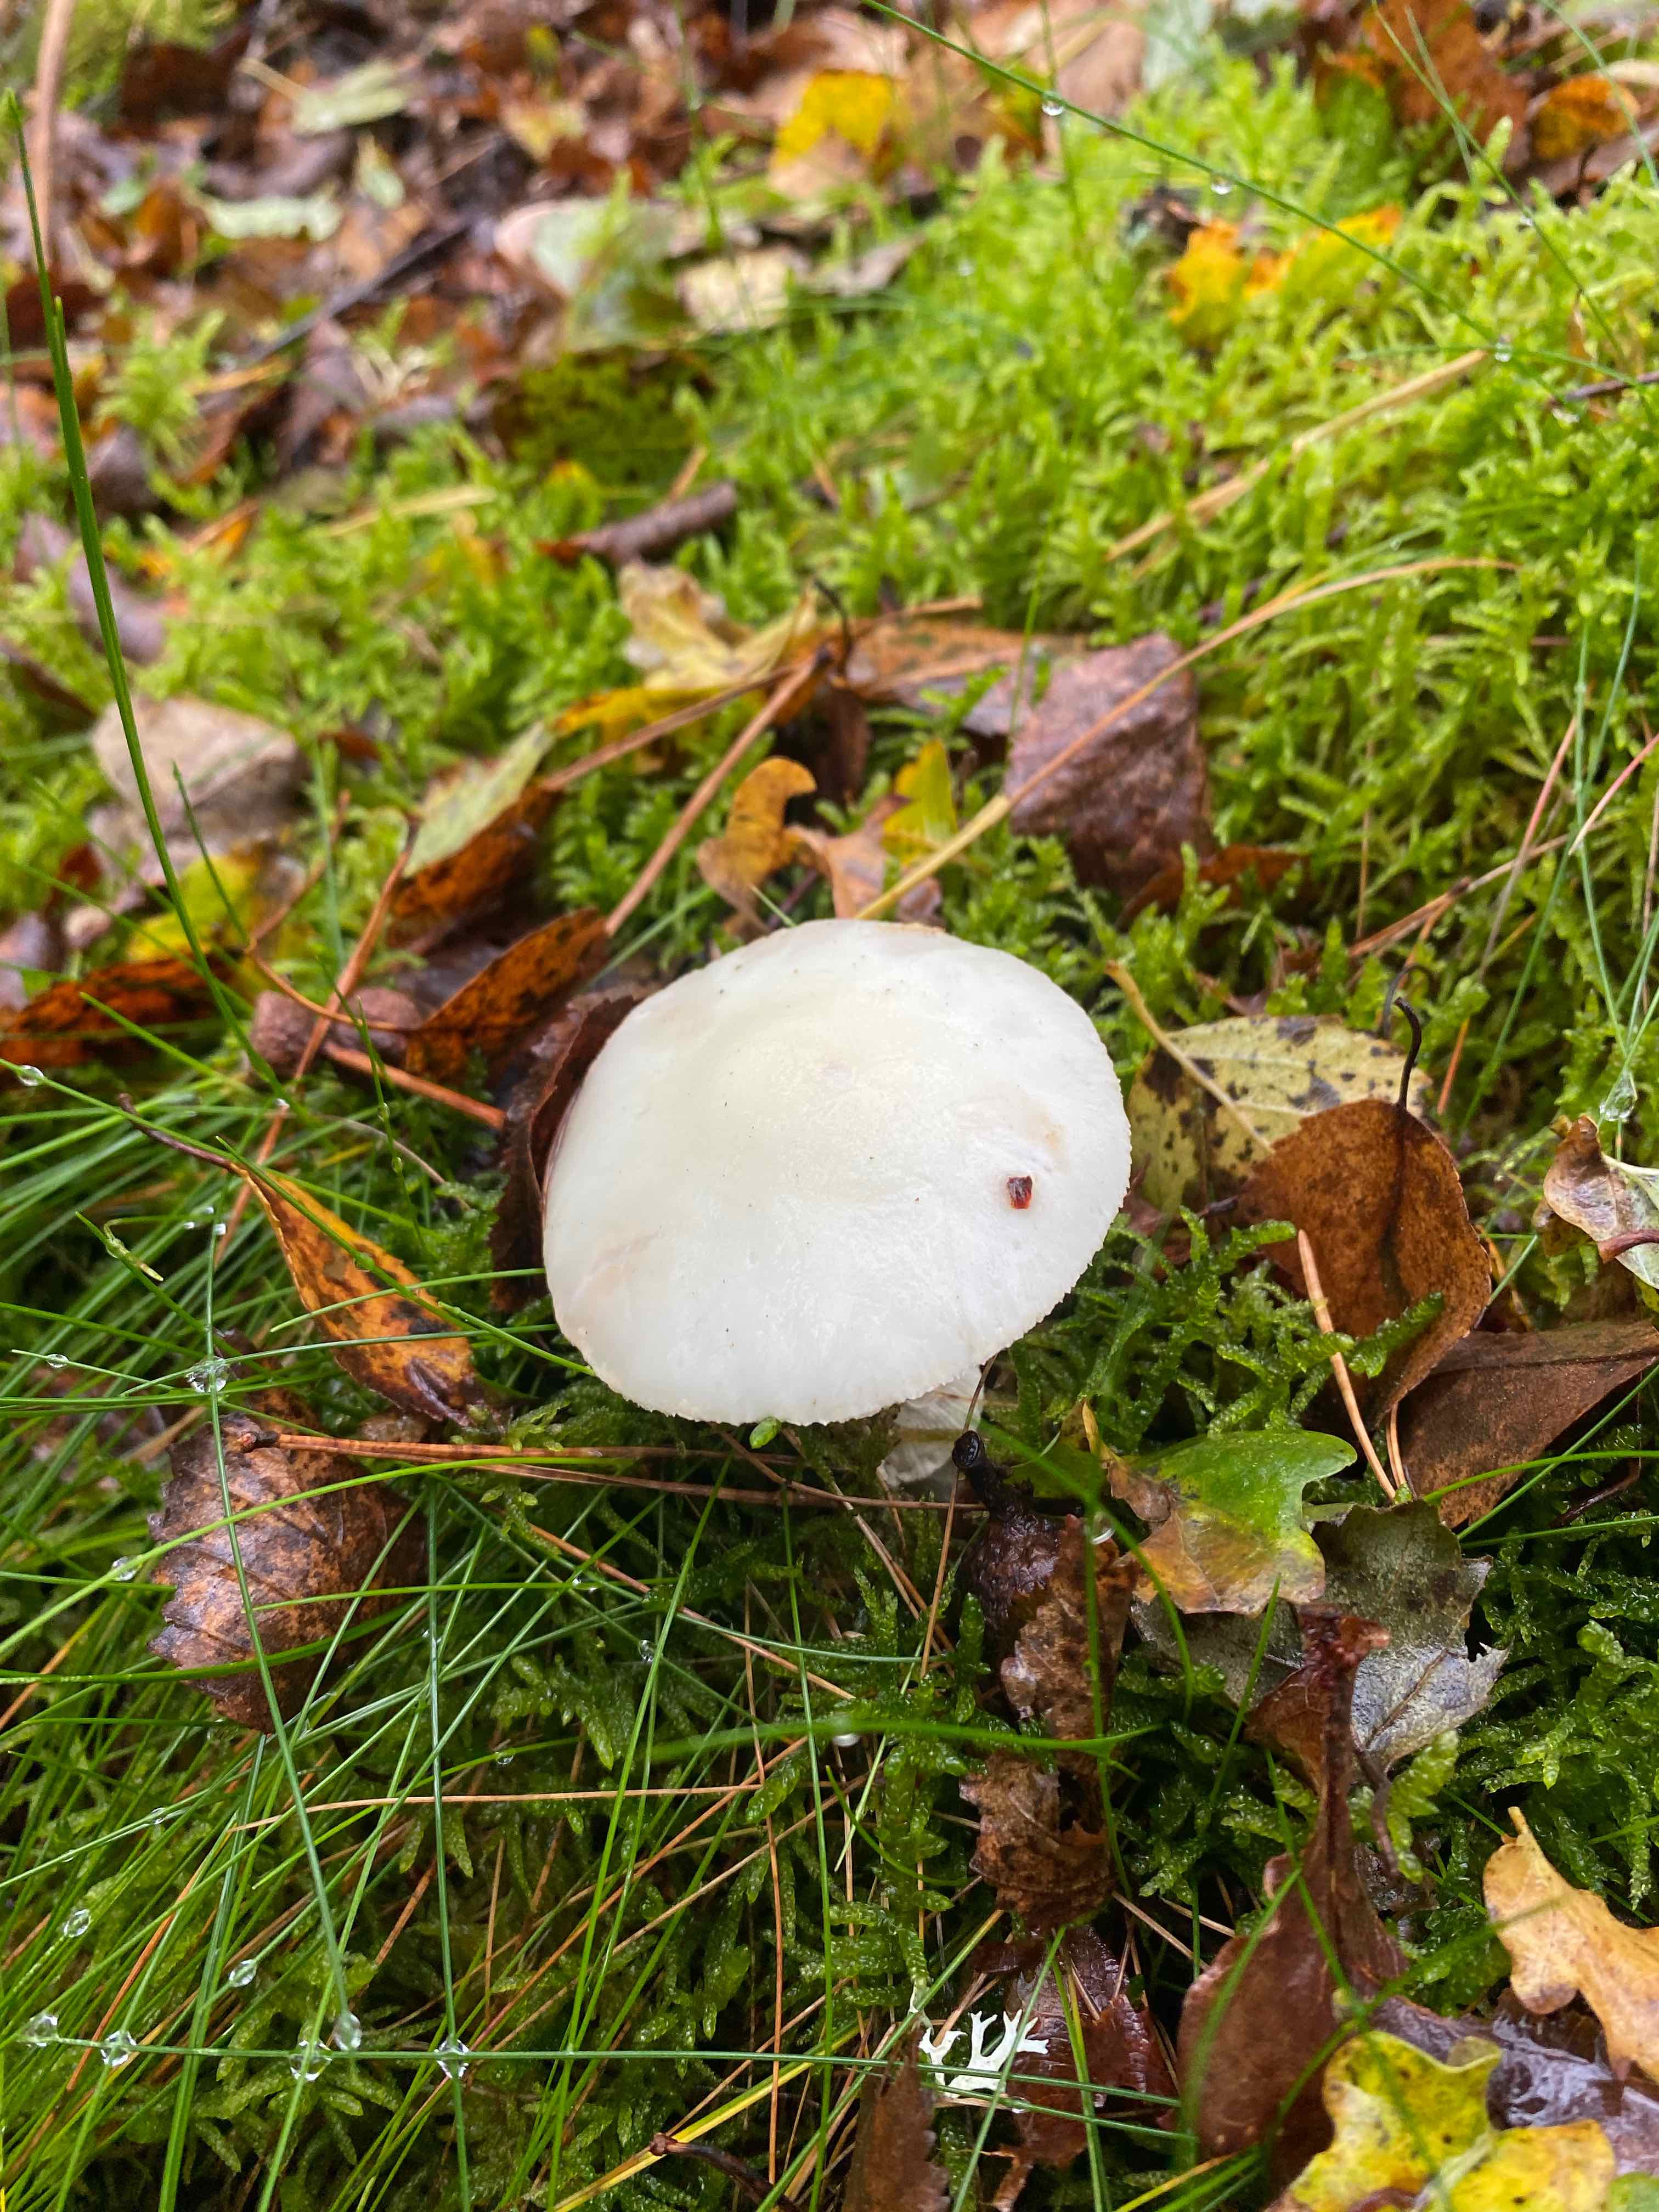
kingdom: Fungi
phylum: Basidiomycota
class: Agaricomycetes
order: Agaricales
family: Amanitaceae
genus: Amanita
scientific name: Amanita
